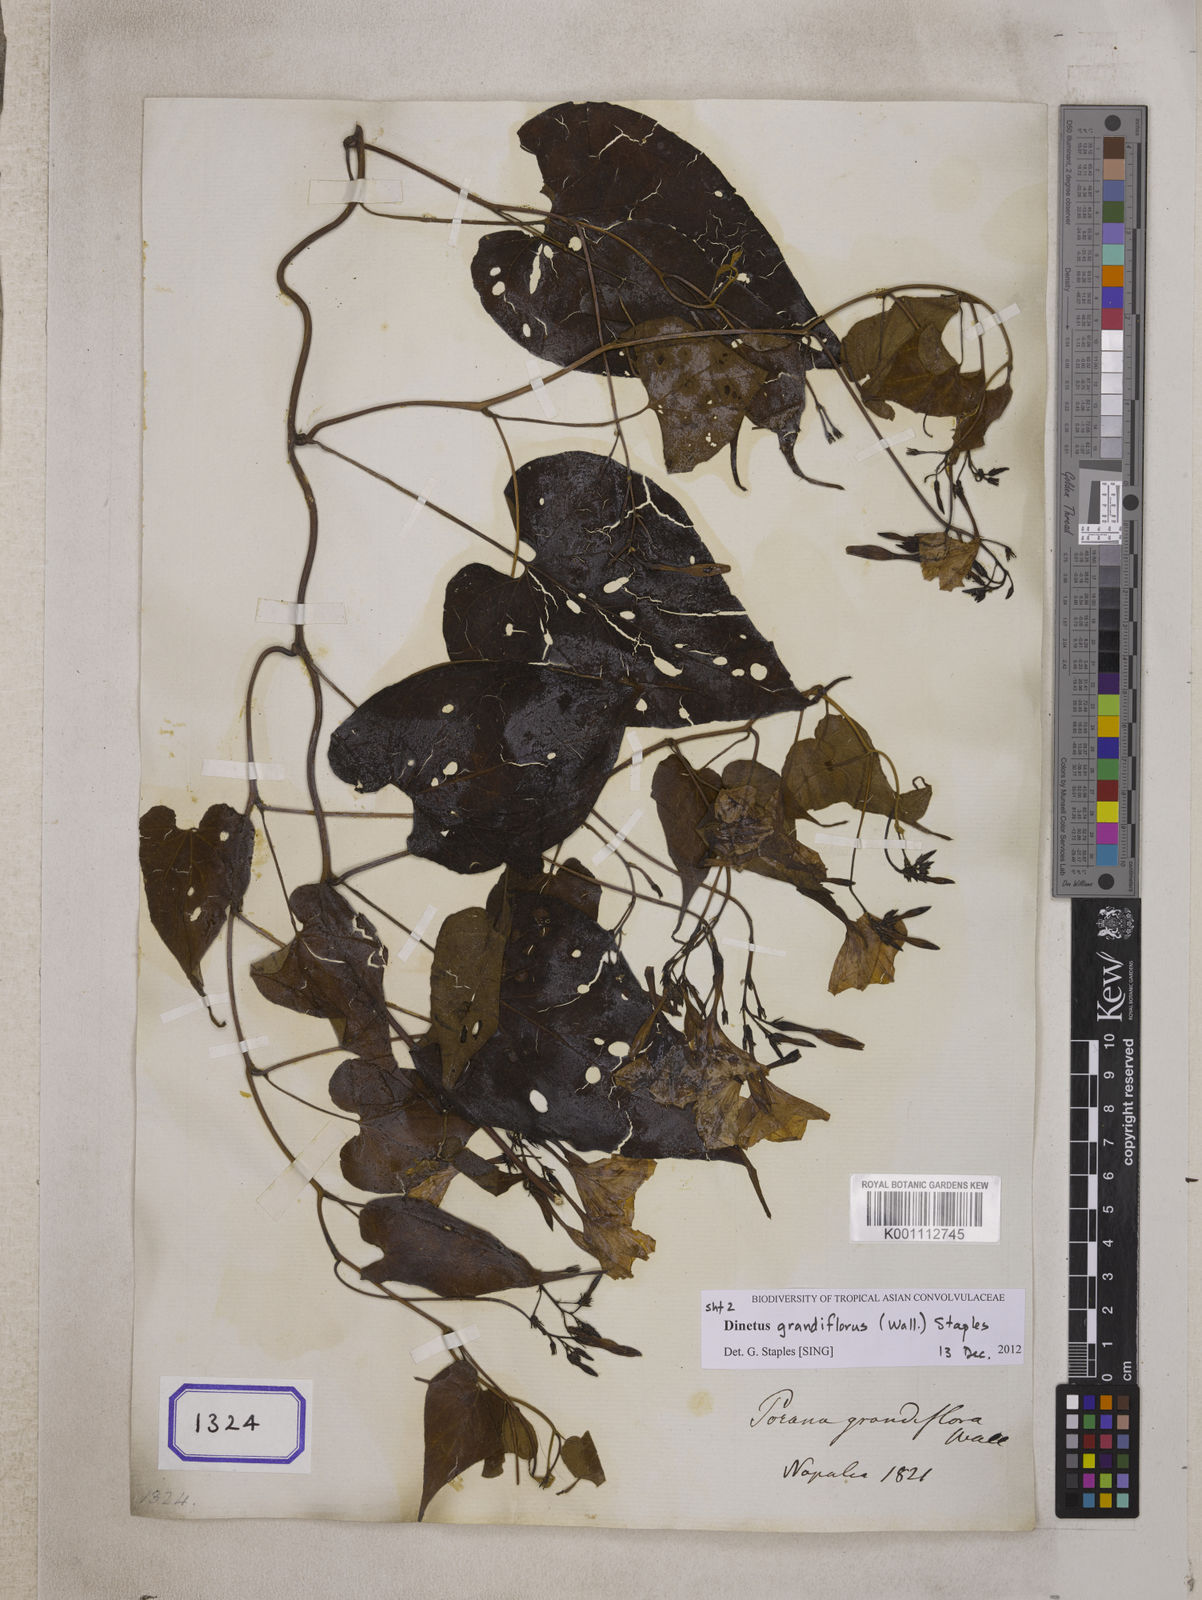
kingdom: Plantae
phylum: Tracheophyta
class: Magnoliopsida
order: Solanales
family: Convolvulaceae
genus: Dinetus
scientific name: Dinetus grandiflorus
